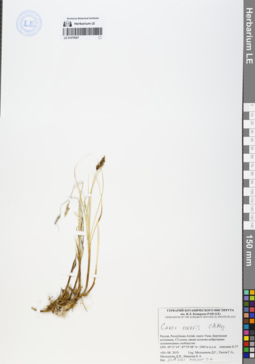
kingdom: Plantae
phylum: Tracheophyta
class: Liliopsida
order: Poales
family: Cyperaceae
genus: Carex
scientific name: Carex enervis
